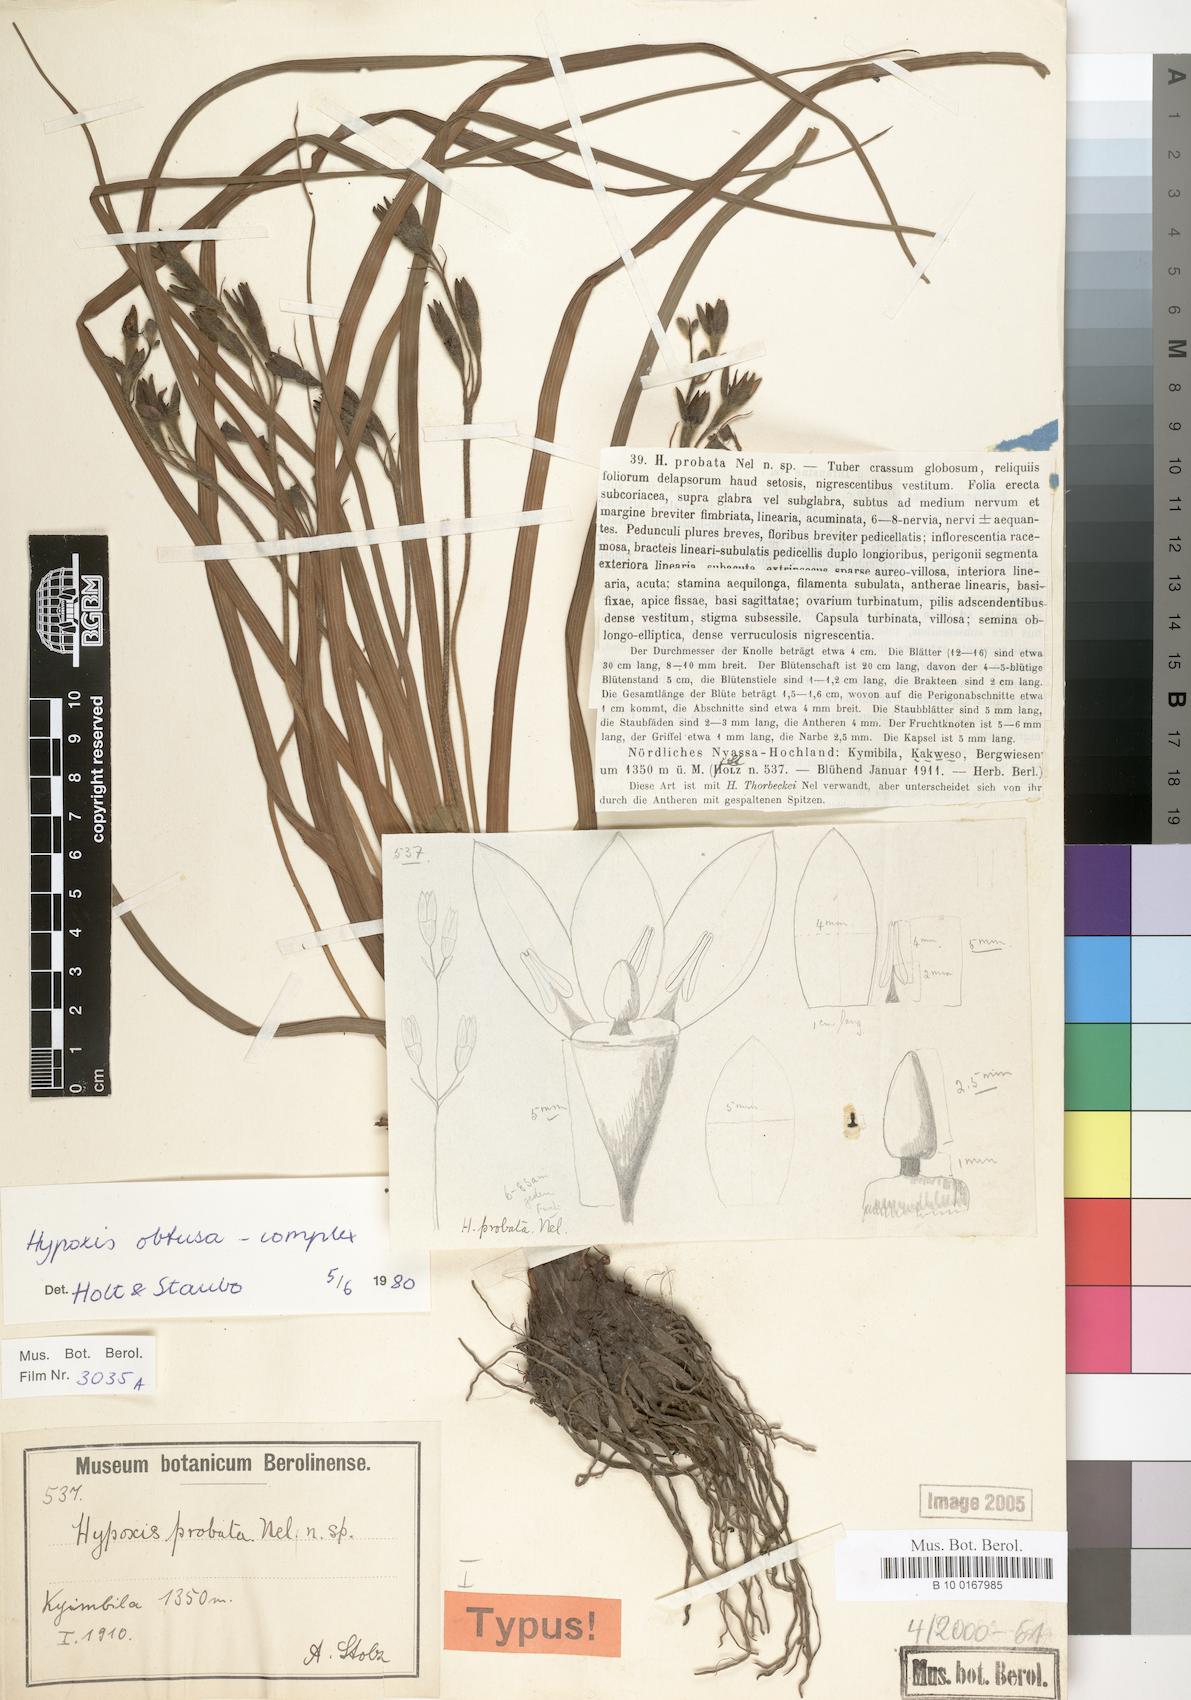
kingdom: Plantae
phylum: Tracheophyta
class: Liliopsida
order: Asparagales
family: Hypoxidaceae
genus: Hypoxis
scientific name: Hypoxis
